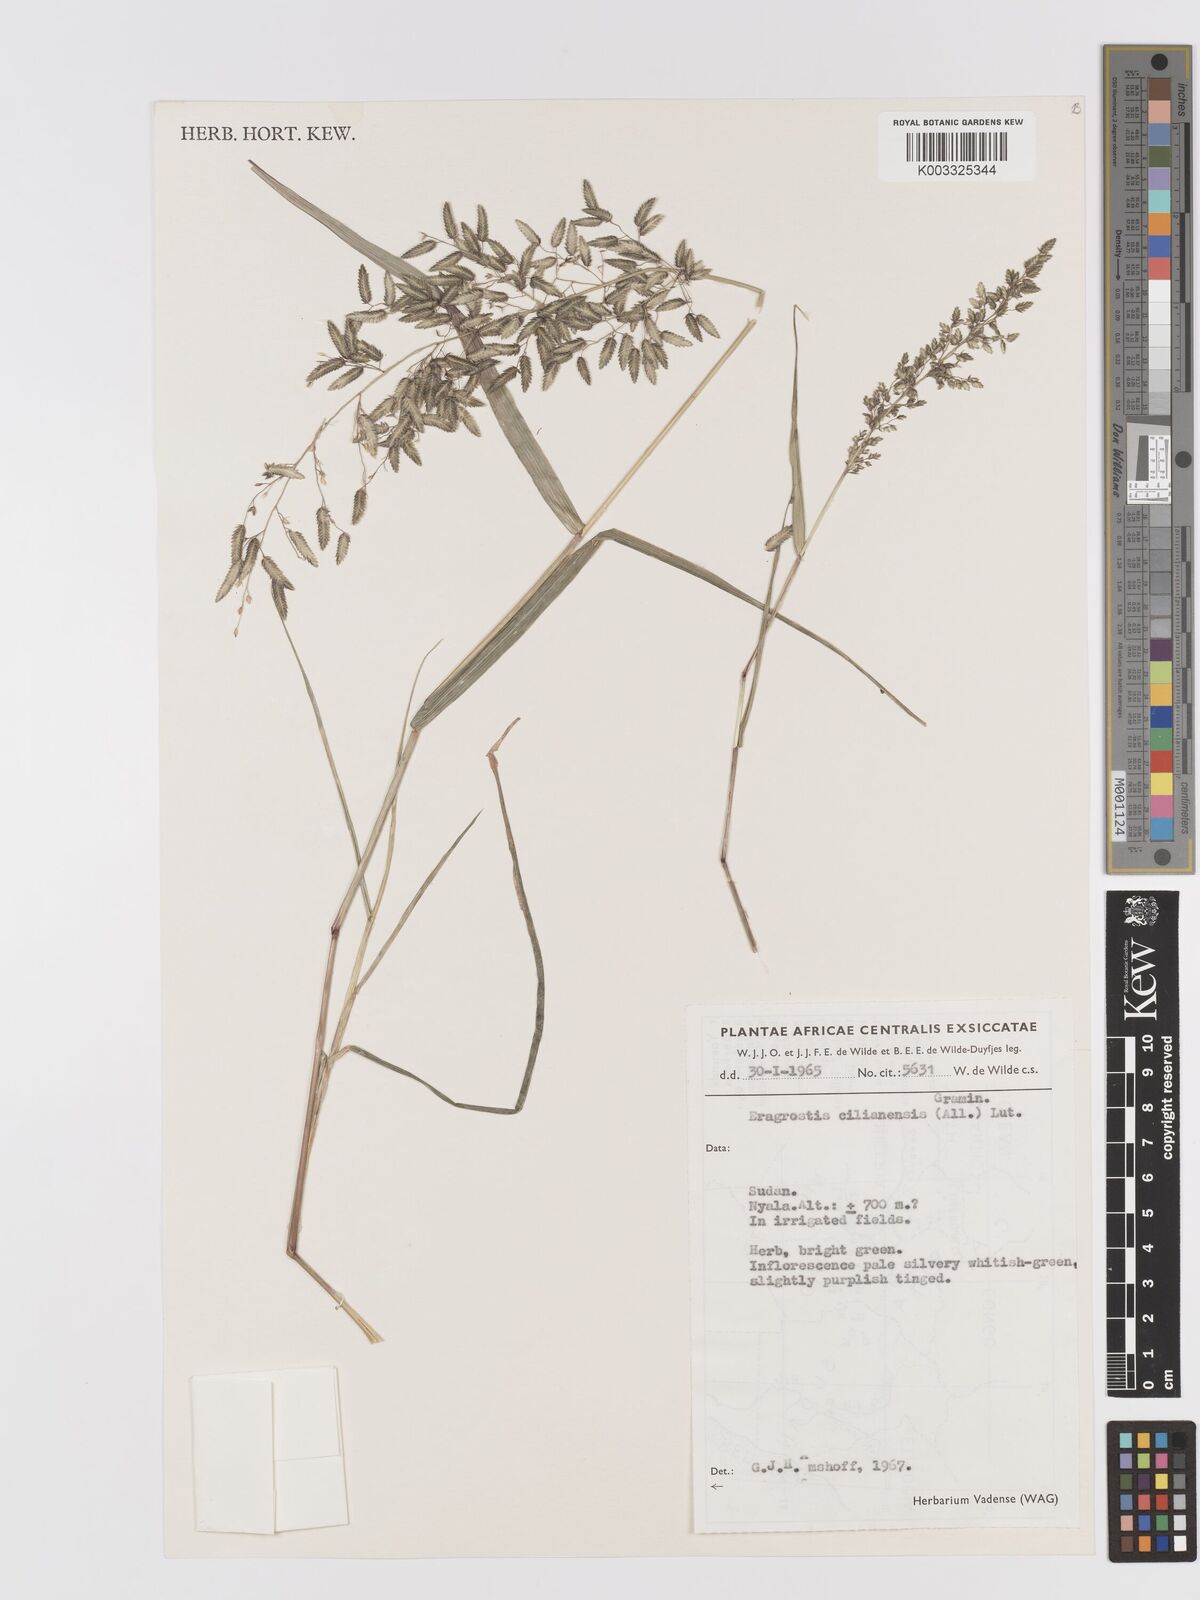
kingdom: Plantae
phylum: Tracheophyta
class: Liliopsida
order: Poales
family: Poaceae
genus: Eragrostis
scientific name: Eragrostis cilianensis
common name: Stinkgrass
